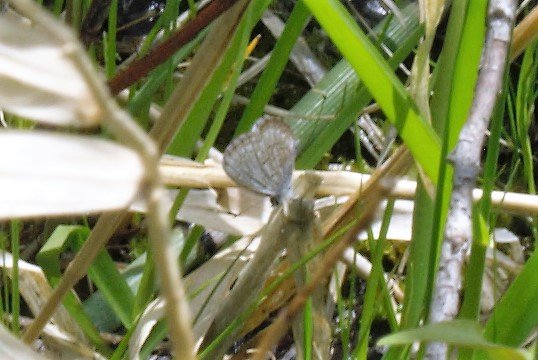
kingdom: Animalia
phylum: Arthropoda
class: Insecta
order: Lepidoptera
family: Lycaenidae
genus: Celastrina
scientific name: Celastrina lucia
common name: Northern Spring Azure
